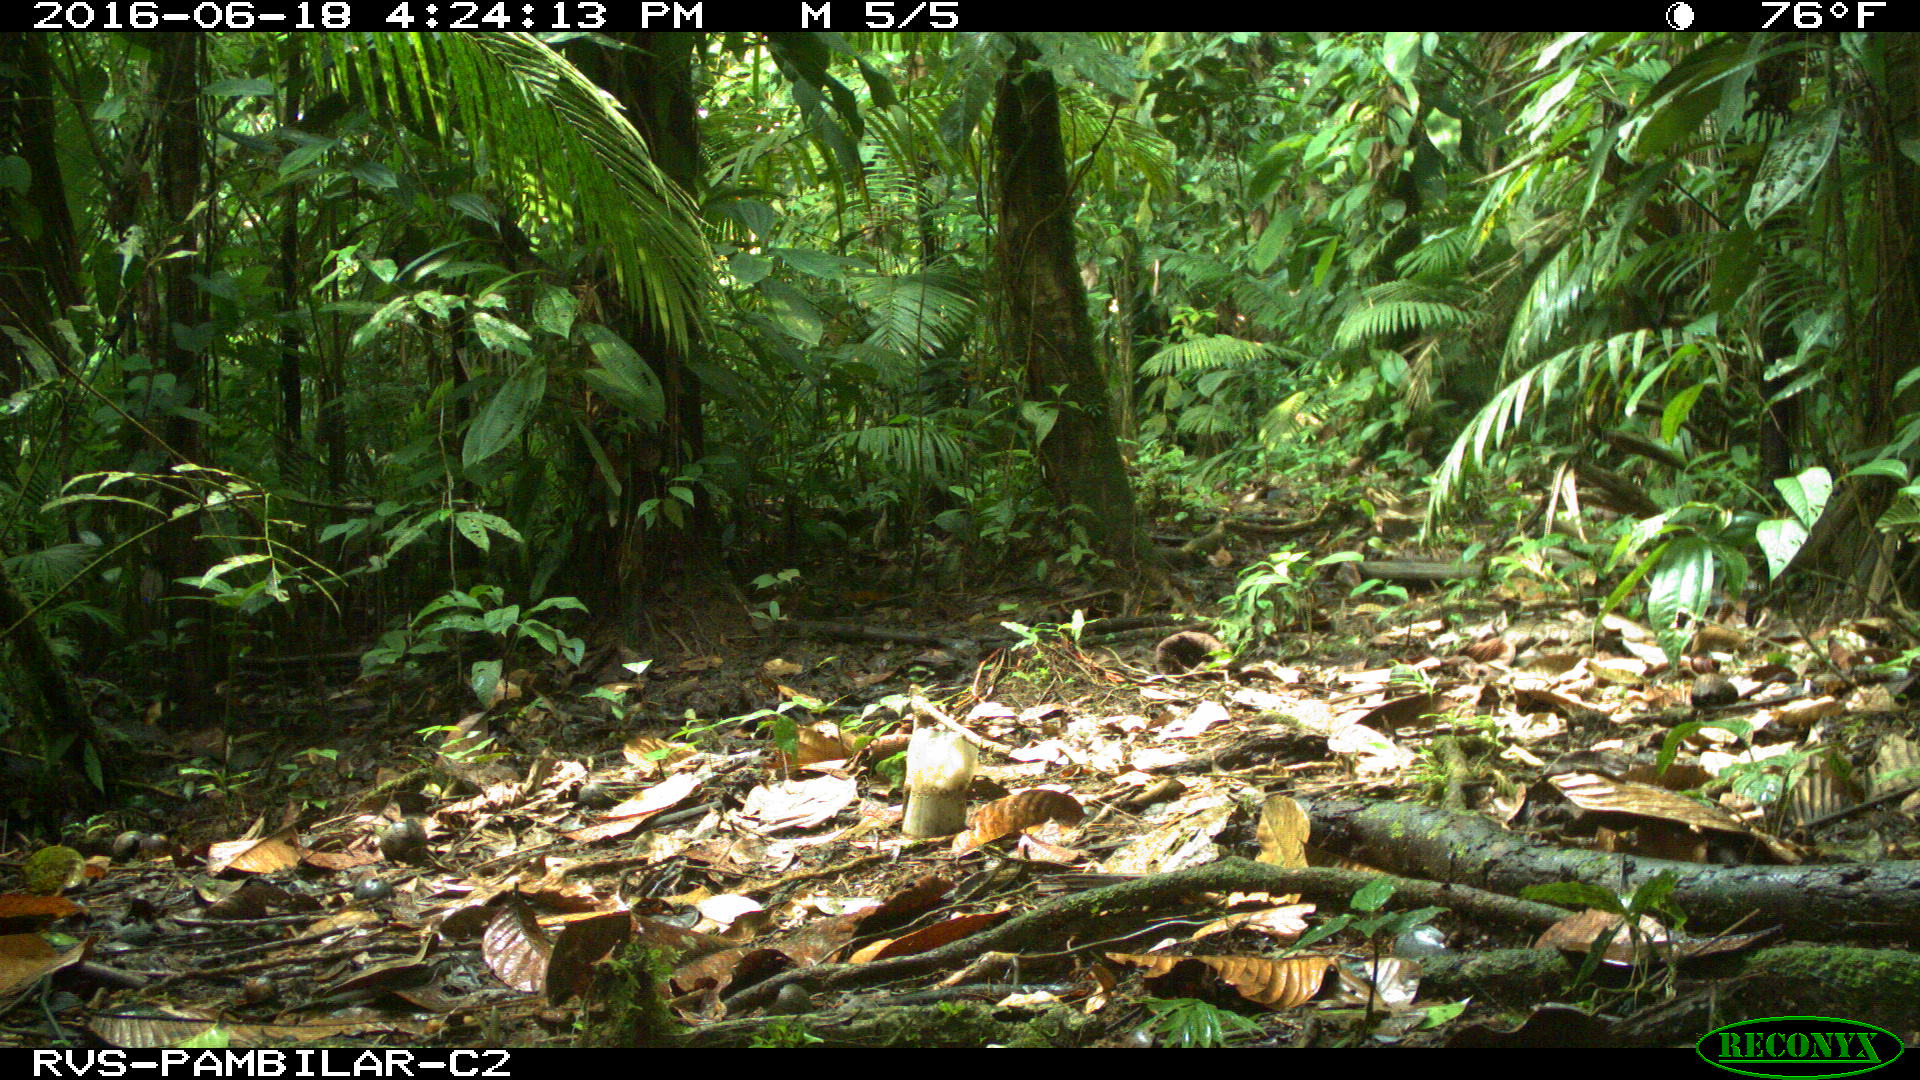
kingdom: Animalia
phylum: Chordata
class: Mammalia
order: Rodentia
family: Dasyproctidae
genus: Dasyprocta
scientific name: Dasyprocta punctata
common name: Central american agouti
